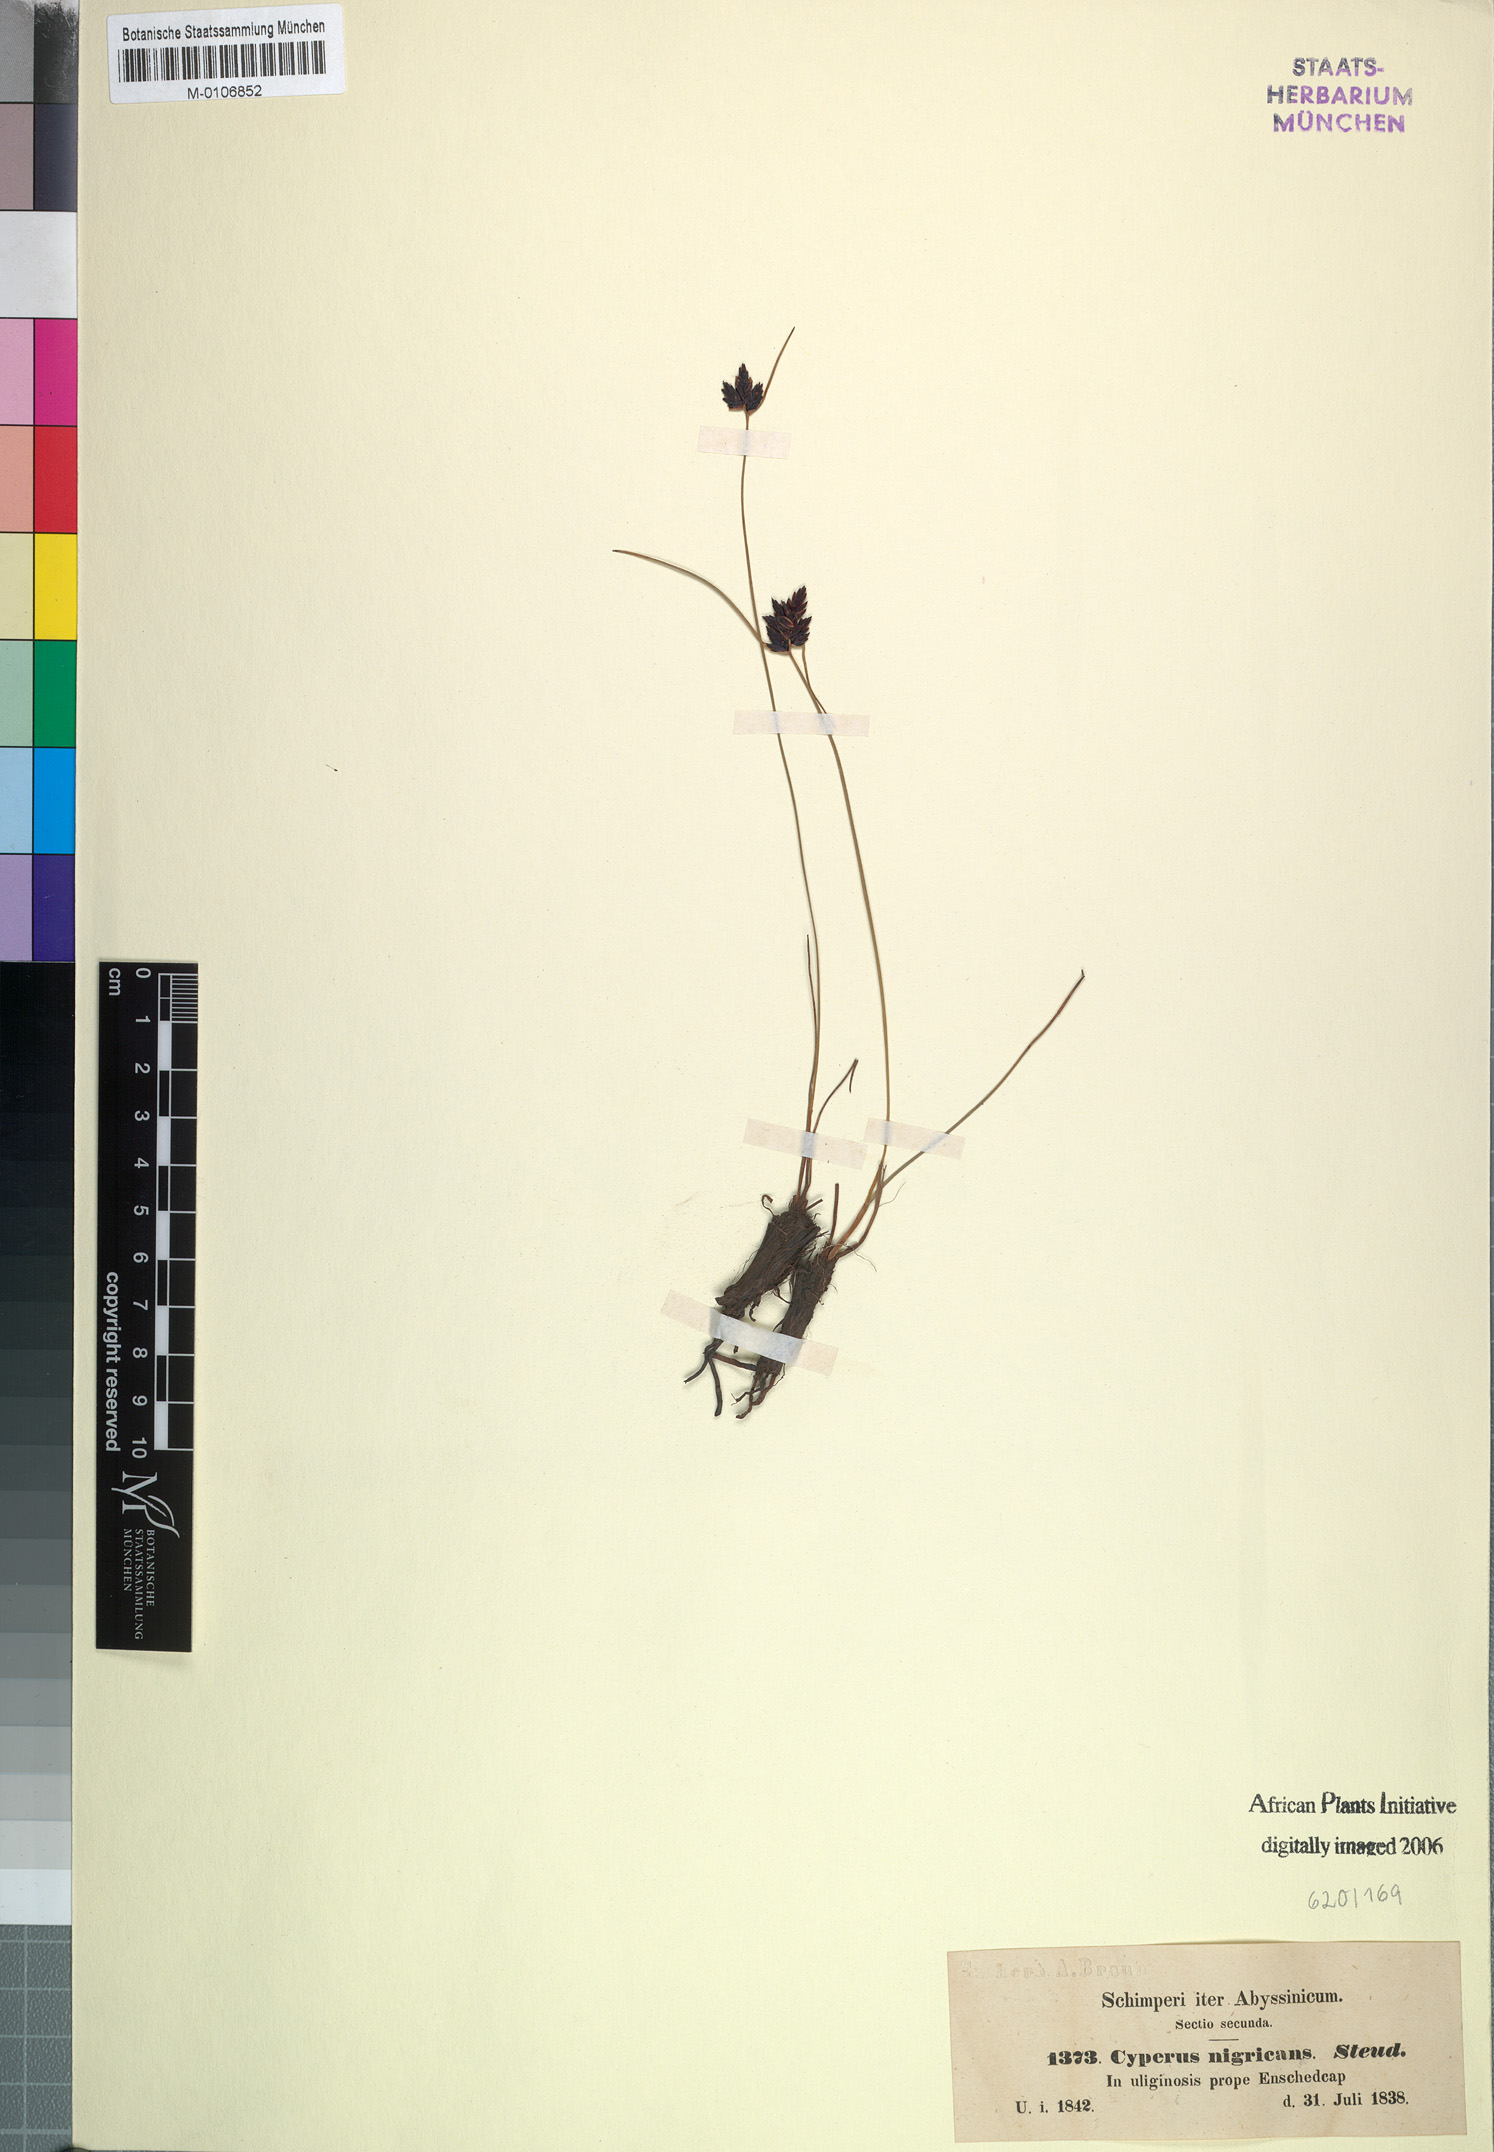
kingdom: Plantae
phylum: Tracheophyta
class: Liliopsida
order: Poales
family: Cyperaceae
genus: Cyperus
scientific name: Cyperus nigricans
